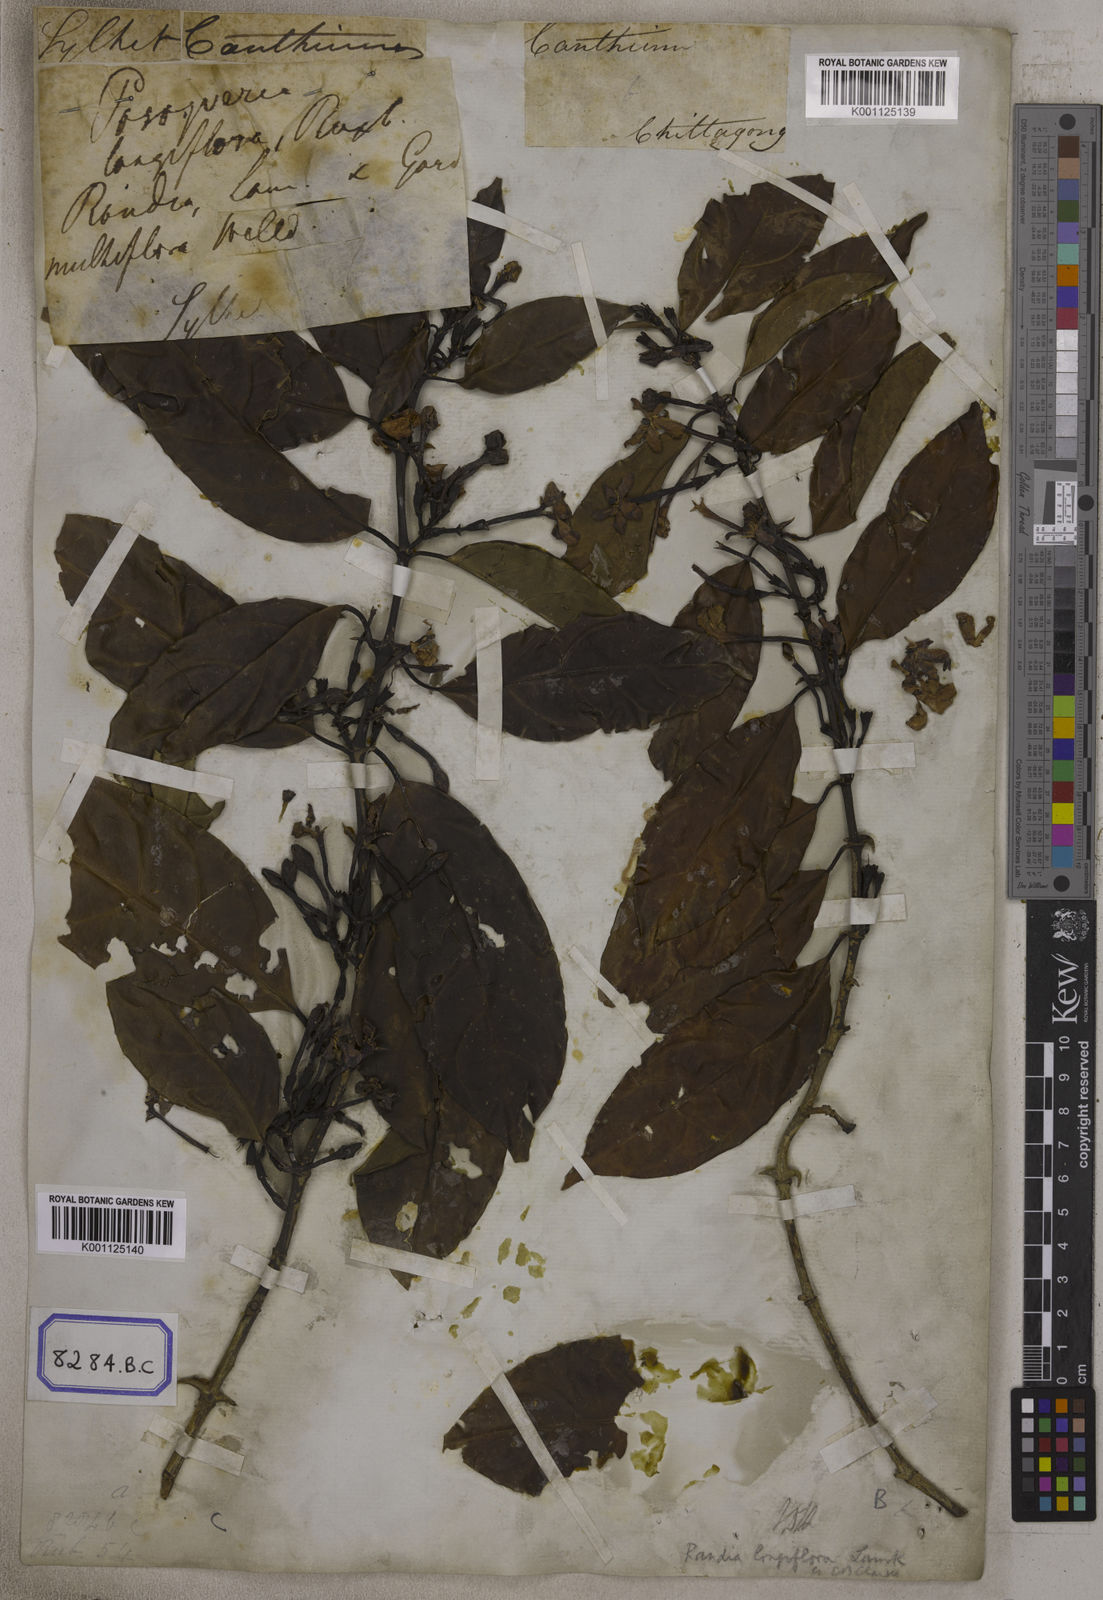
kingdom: Plantae
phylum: Tracheophyta
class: Magnoliopsida
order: Gentianales
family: Rubiaceae
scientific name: Rubiaceae
